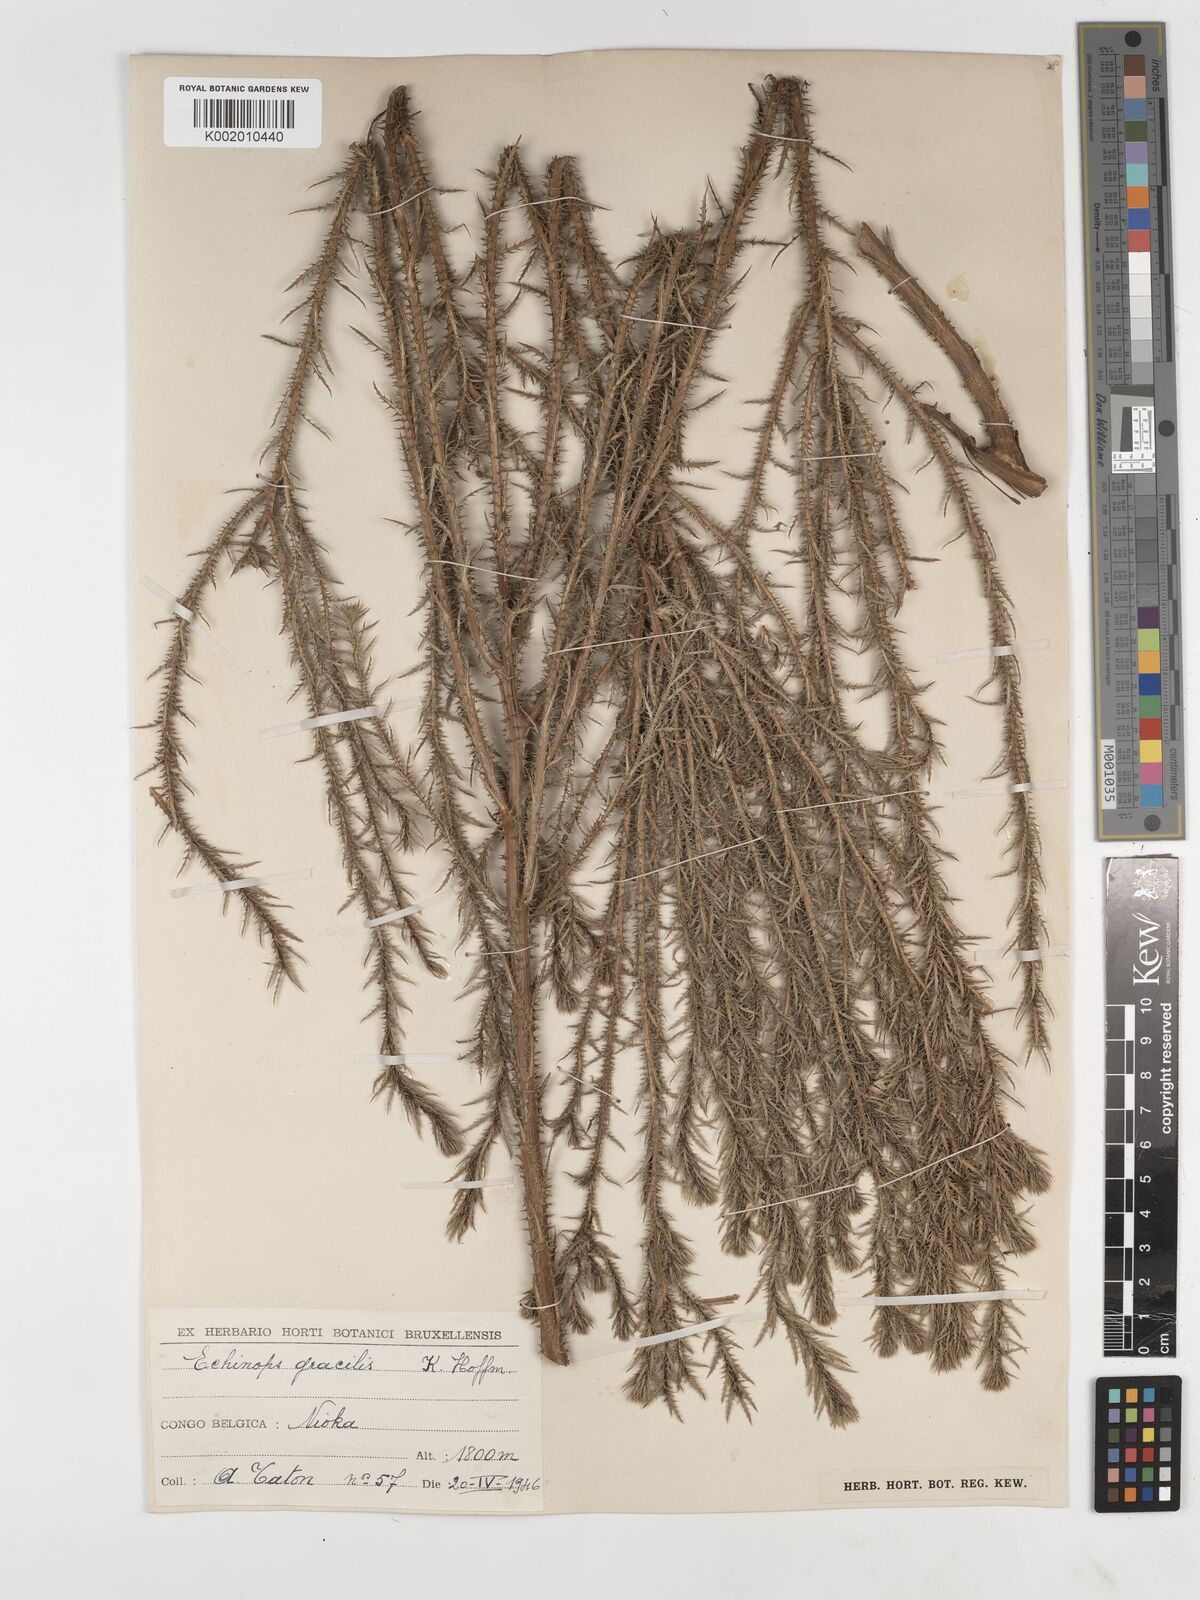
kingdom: Plantae
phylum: Tracheophyta
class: Magnoliopsida
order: Asterales
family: Asteraceae
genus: Echinops
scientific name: Echinops gracilis
